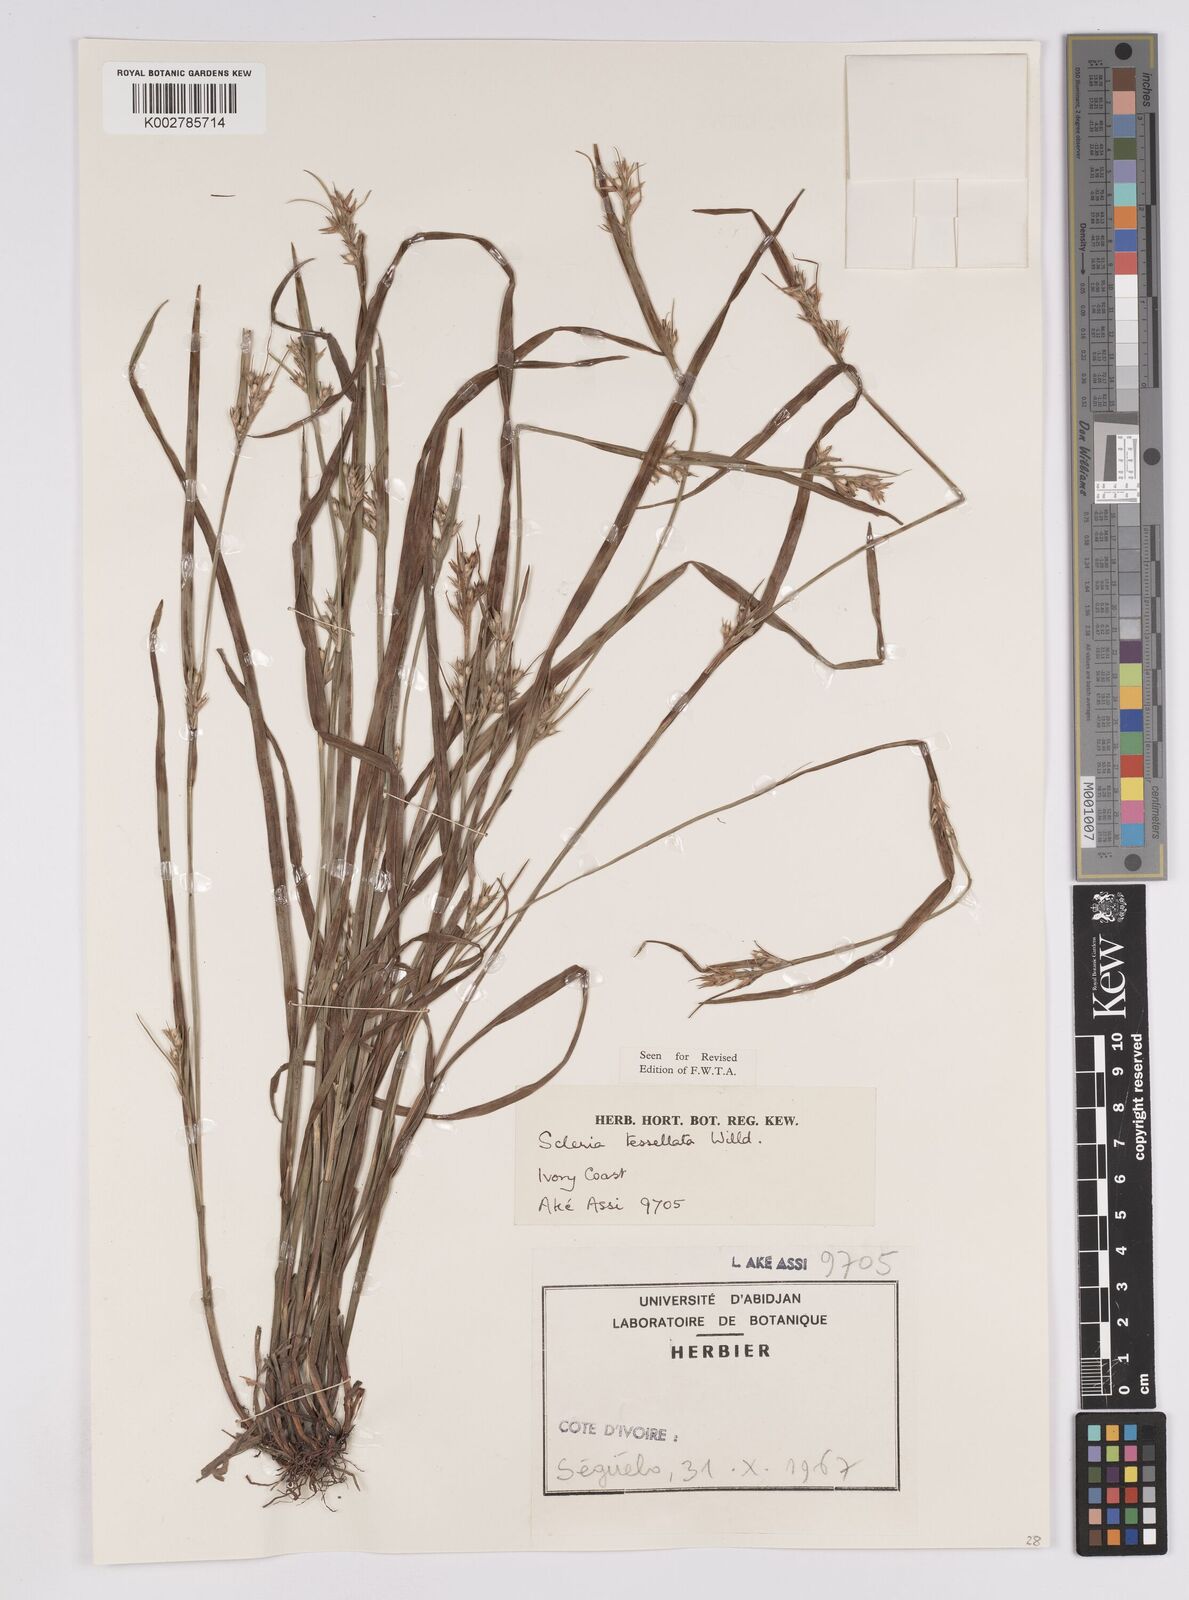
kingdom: Plantae
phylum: Tracheophyta
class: Liliopsida
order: Poales
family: Cyperaceae
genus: Scleria
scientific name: Scleria tessellata
